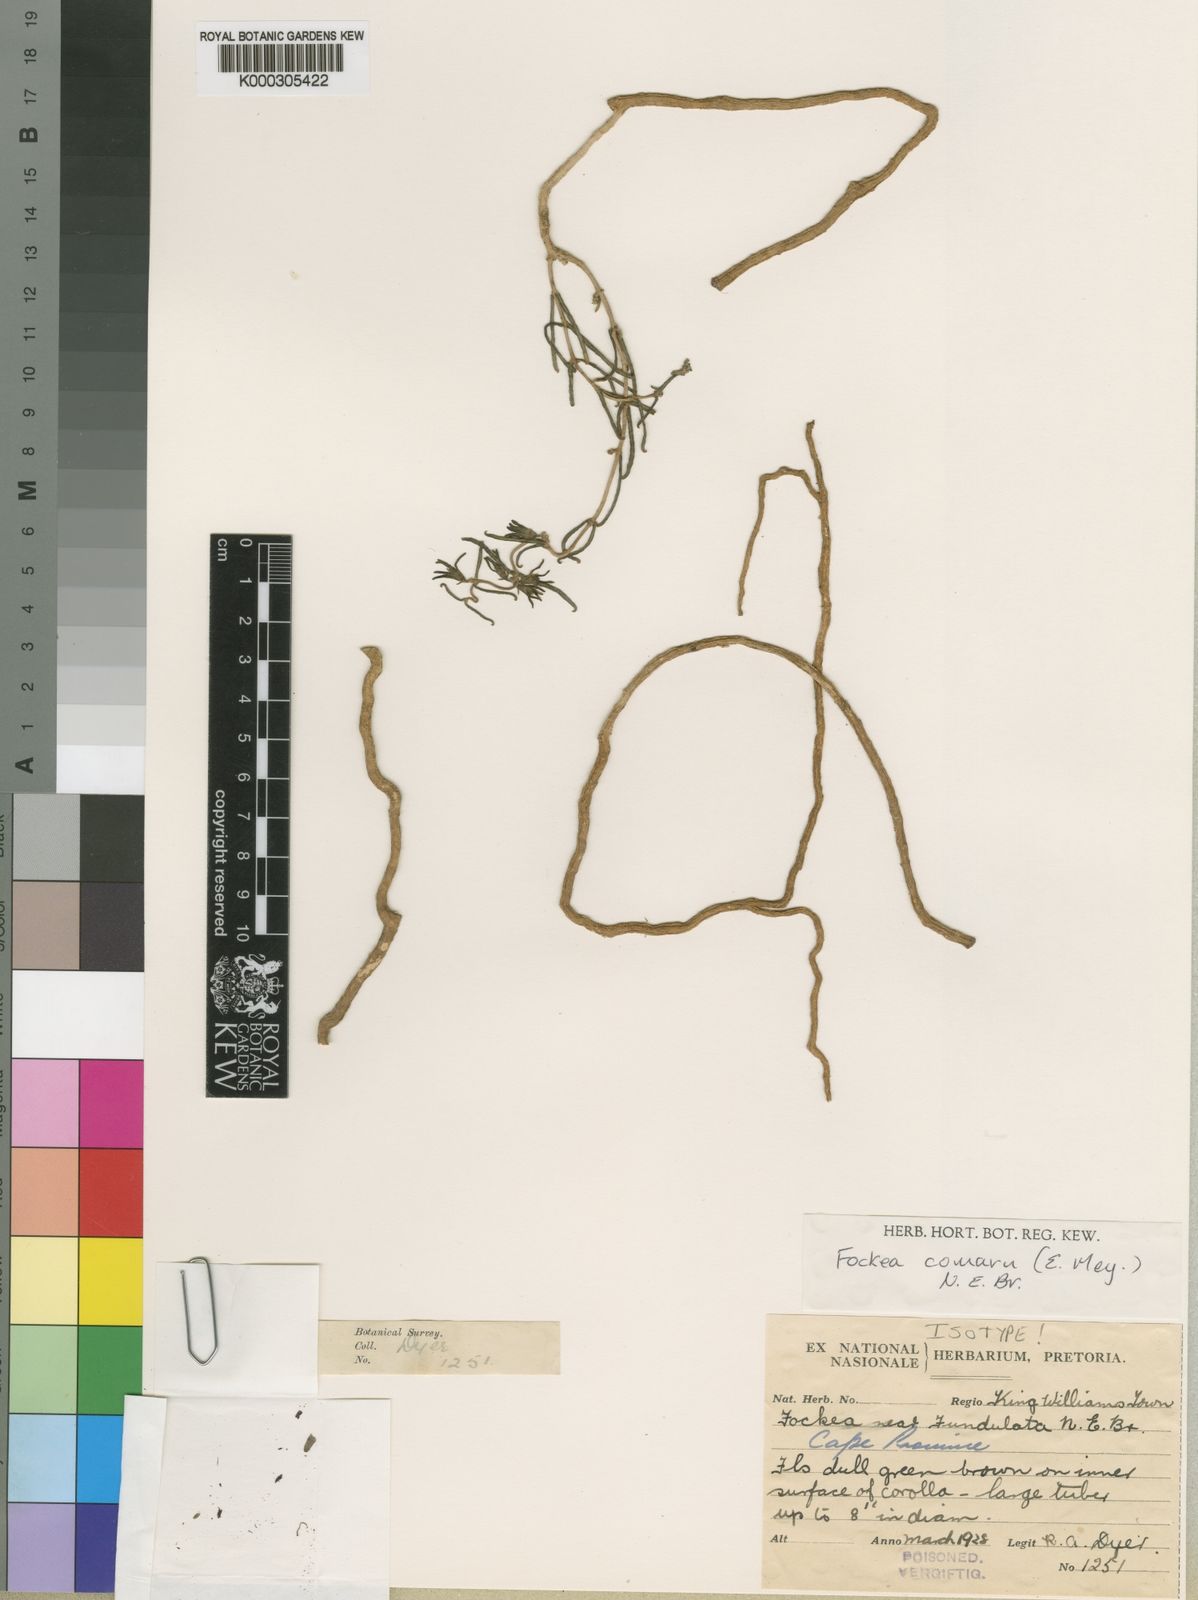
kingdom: Plantae
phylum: Tracheophyta
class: Magnoliopsida
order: Gentianales
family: Apocynaceae
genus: Fockea
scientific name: Fockea comaru
